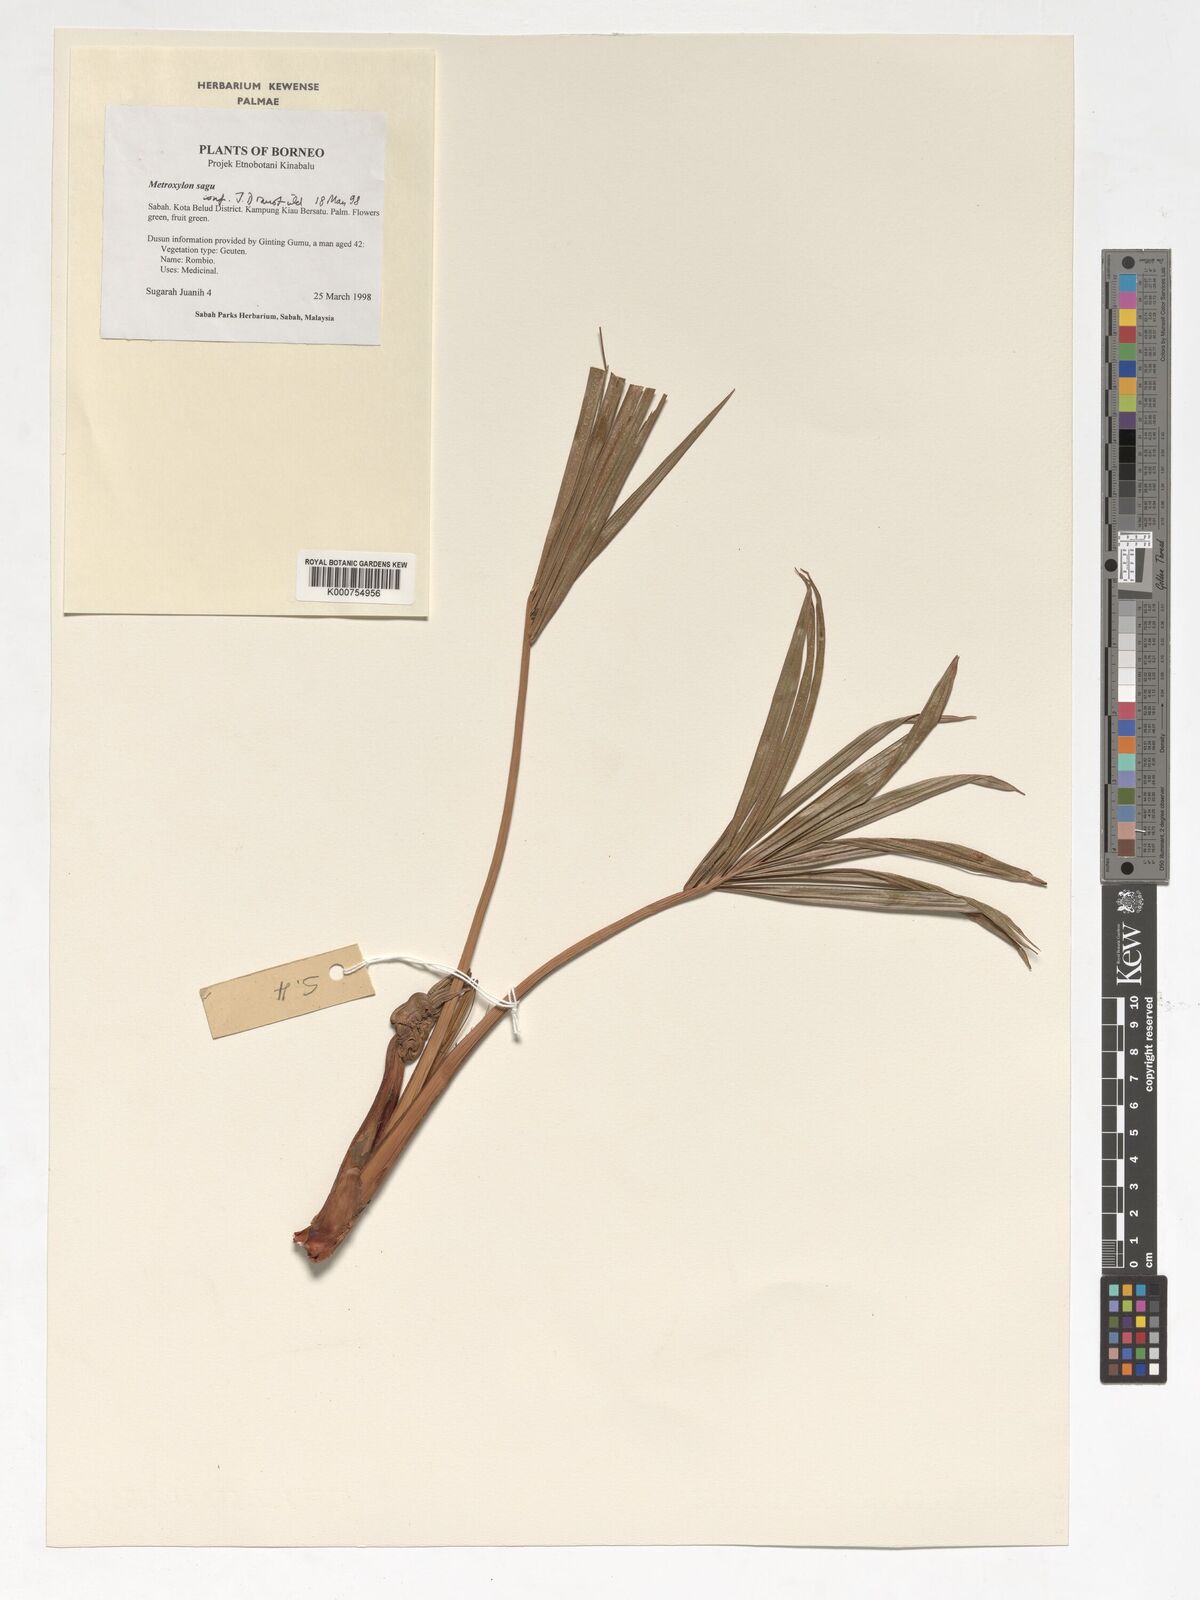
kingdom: Plantae
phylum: Tracheophyta
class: Liliopsida
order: Arecales
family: Arecaceae
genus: Metroxylon
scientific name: Metroxylon sagu
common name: Sago palm
